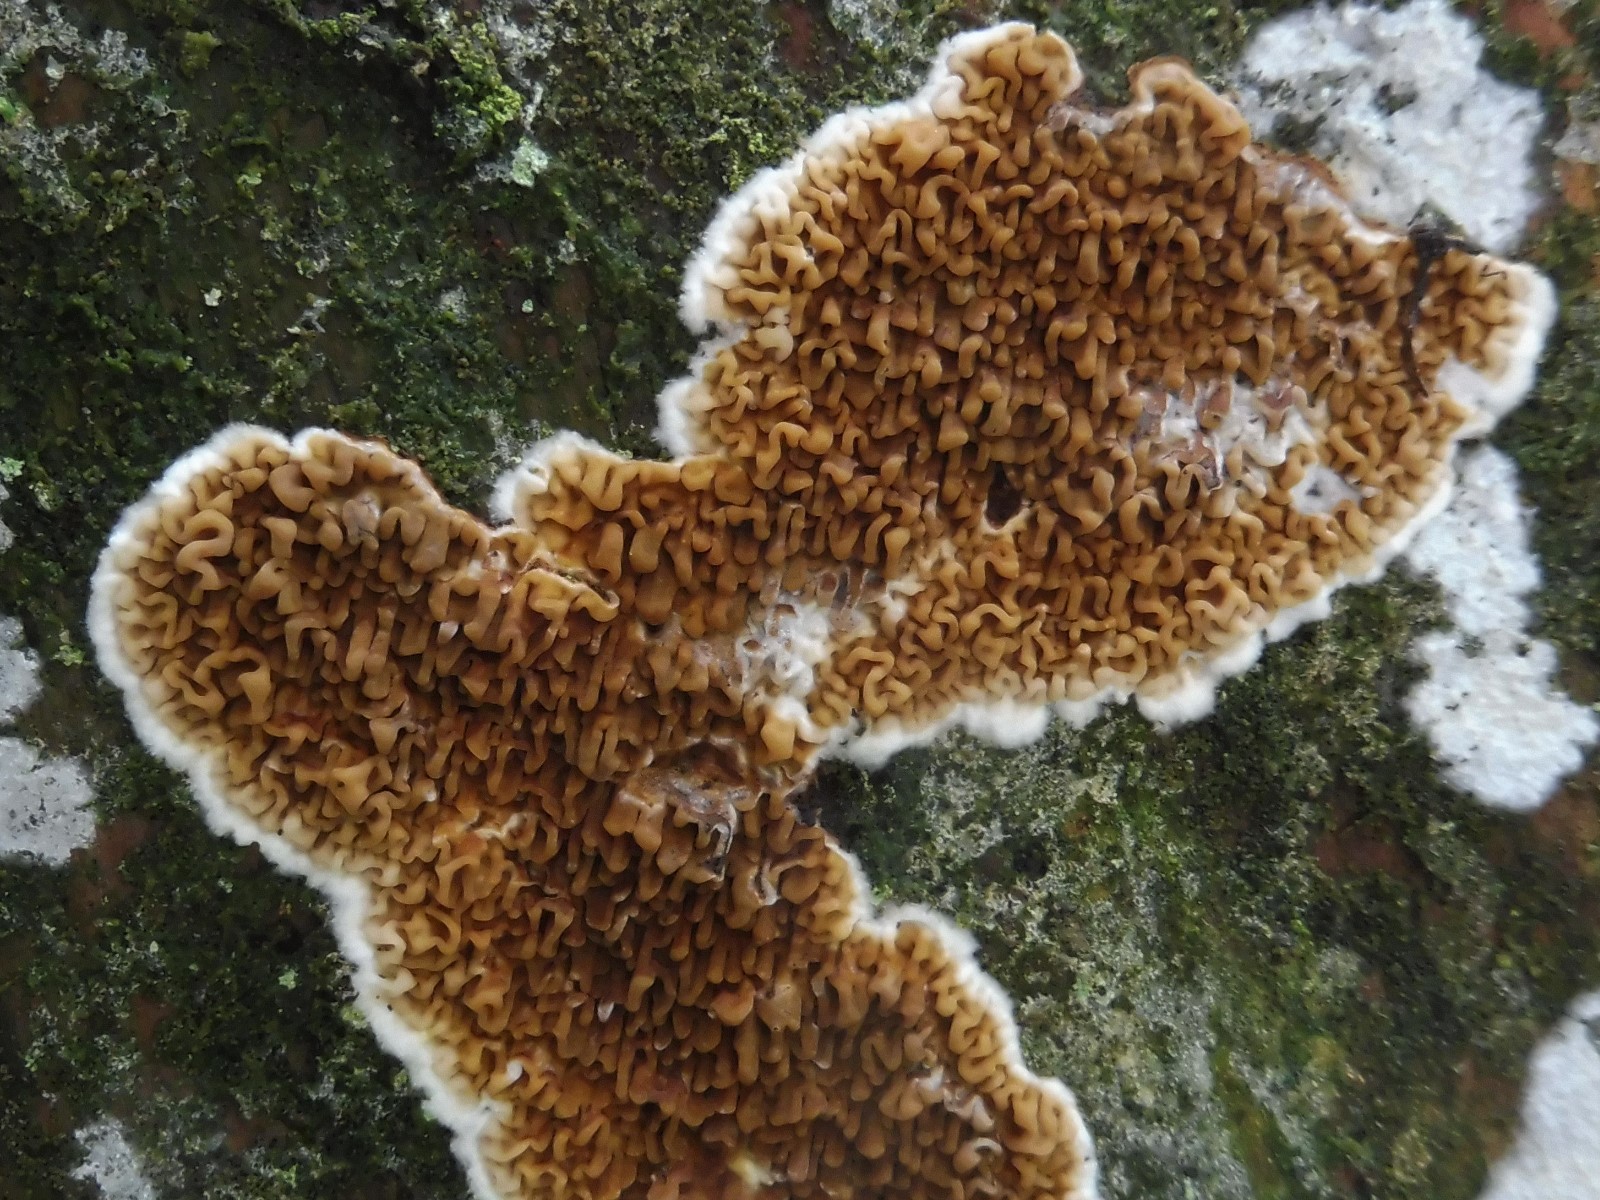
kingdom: Fungi
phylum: Basidiomycota
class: Agaricomycetes
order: Boletales
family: Serpulaceae
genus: Serpula
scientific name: Serpula himantioides
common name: tyndkødet hussvamp
